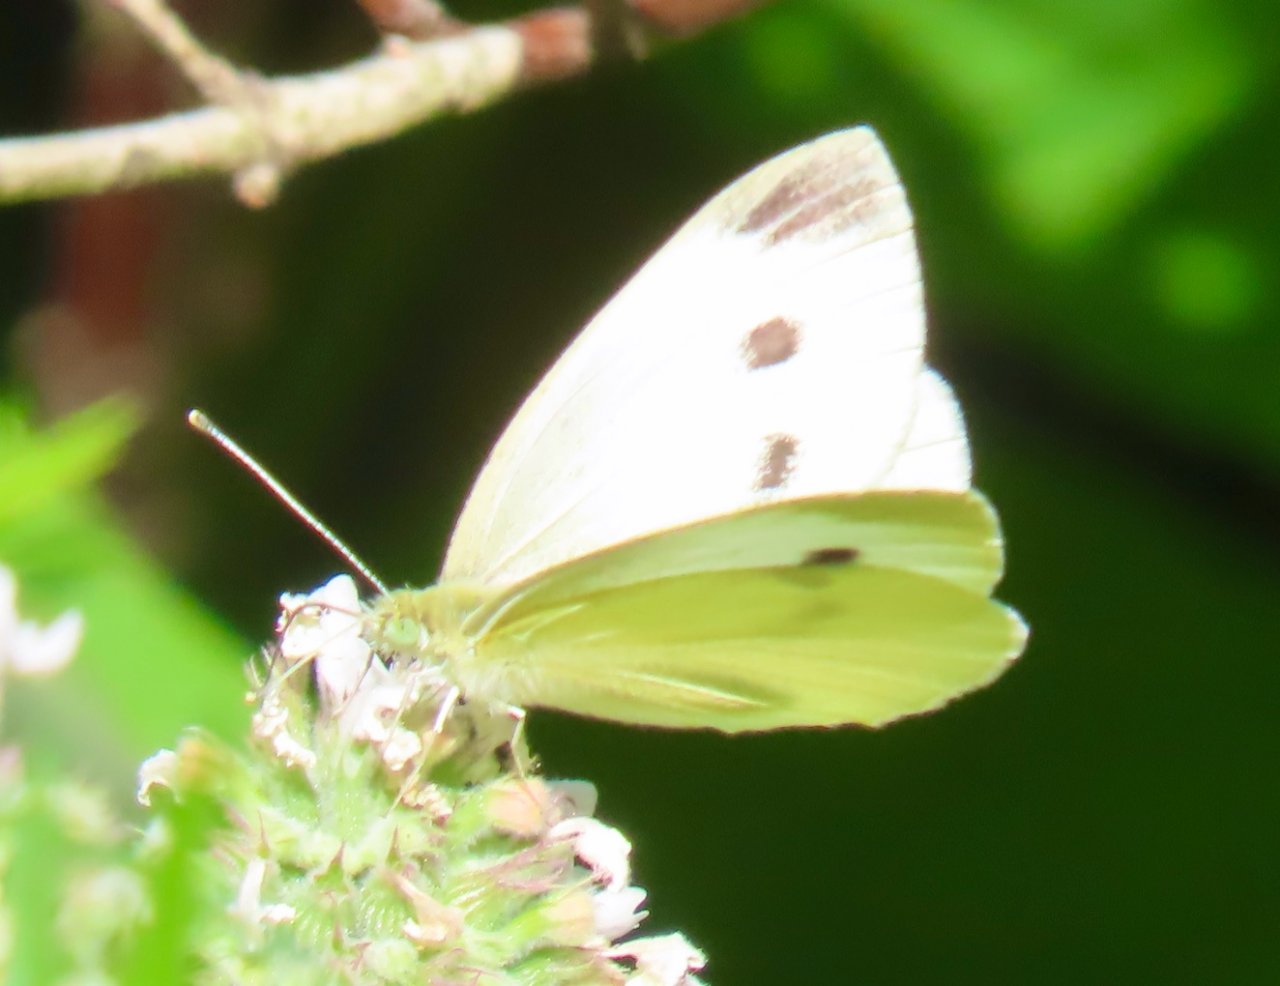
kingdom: Animalia
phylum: Arthropoda
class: Insecta
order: Lepidoptera
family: Pieridae
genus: Pieris
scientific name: Pieris rapae
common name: Cabbage White
